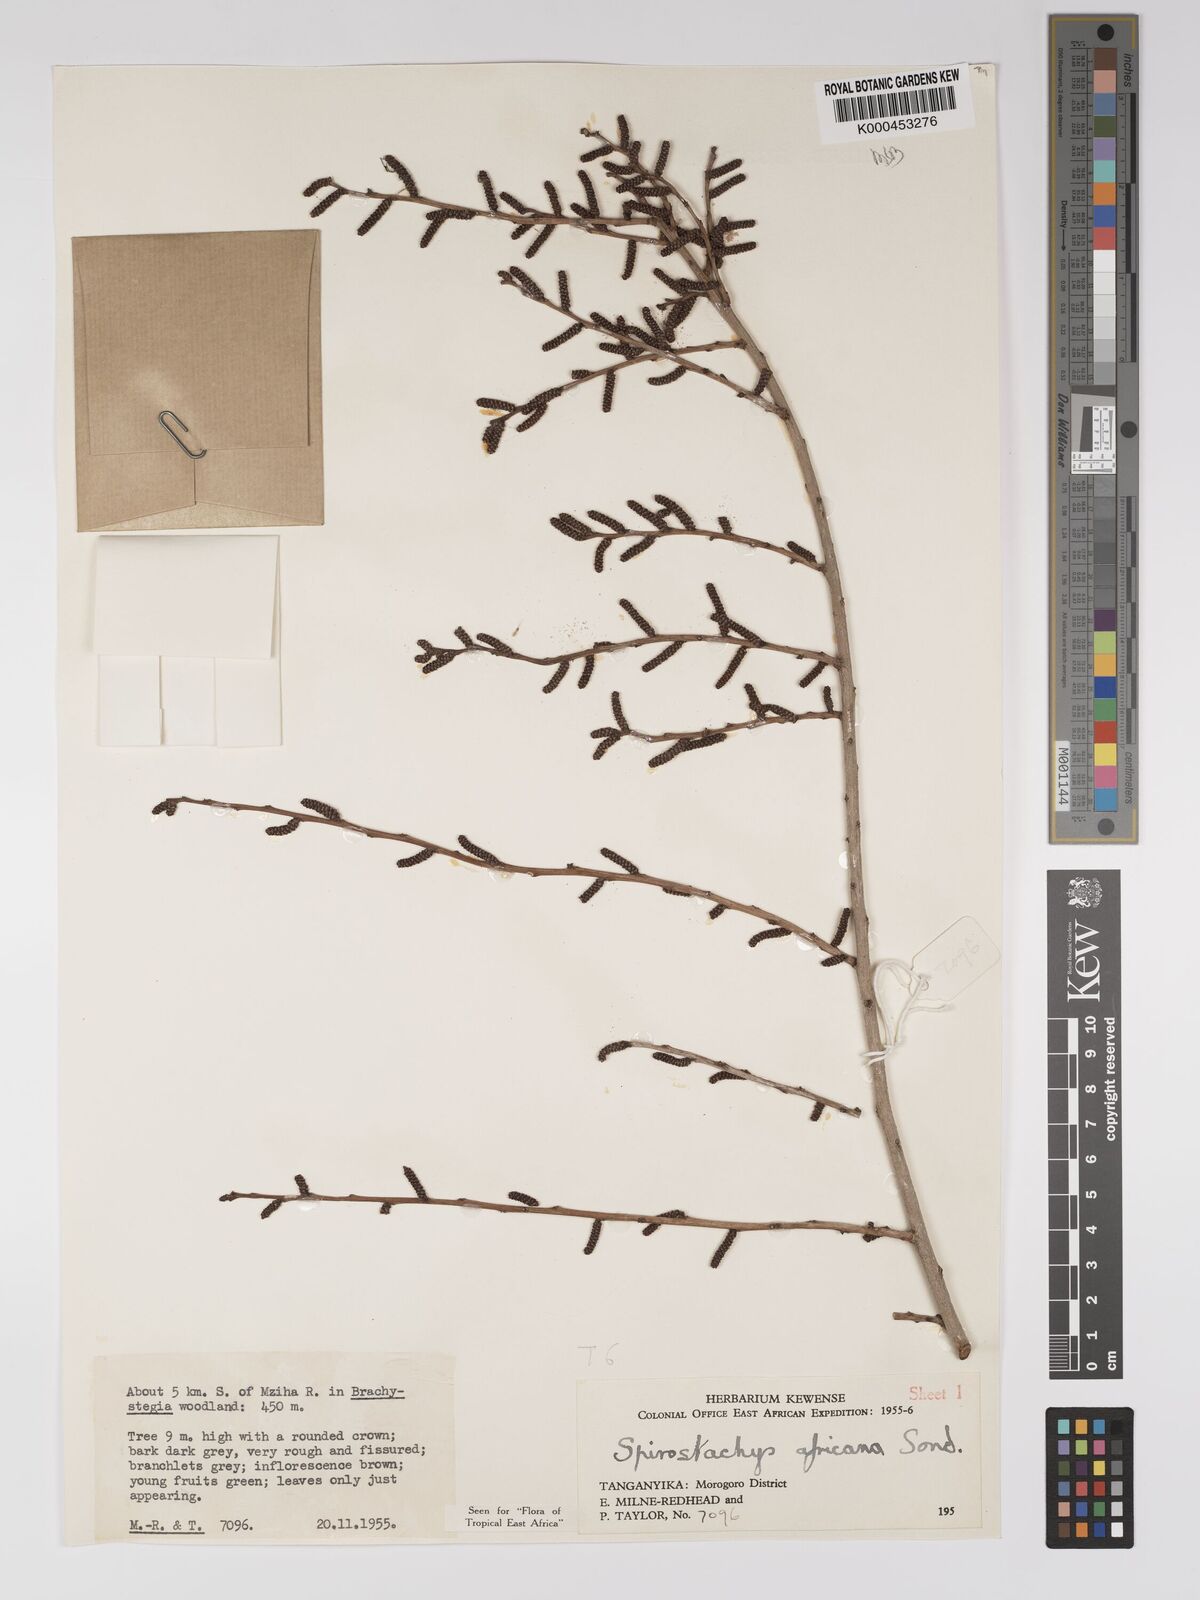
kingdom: Plantae
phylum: Tracheophyta
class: Magnoliopsida
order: Malpighiales
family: Euphorbiaceae
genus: Spirostachys
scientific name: Spirostachys africana
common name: Tamboti
